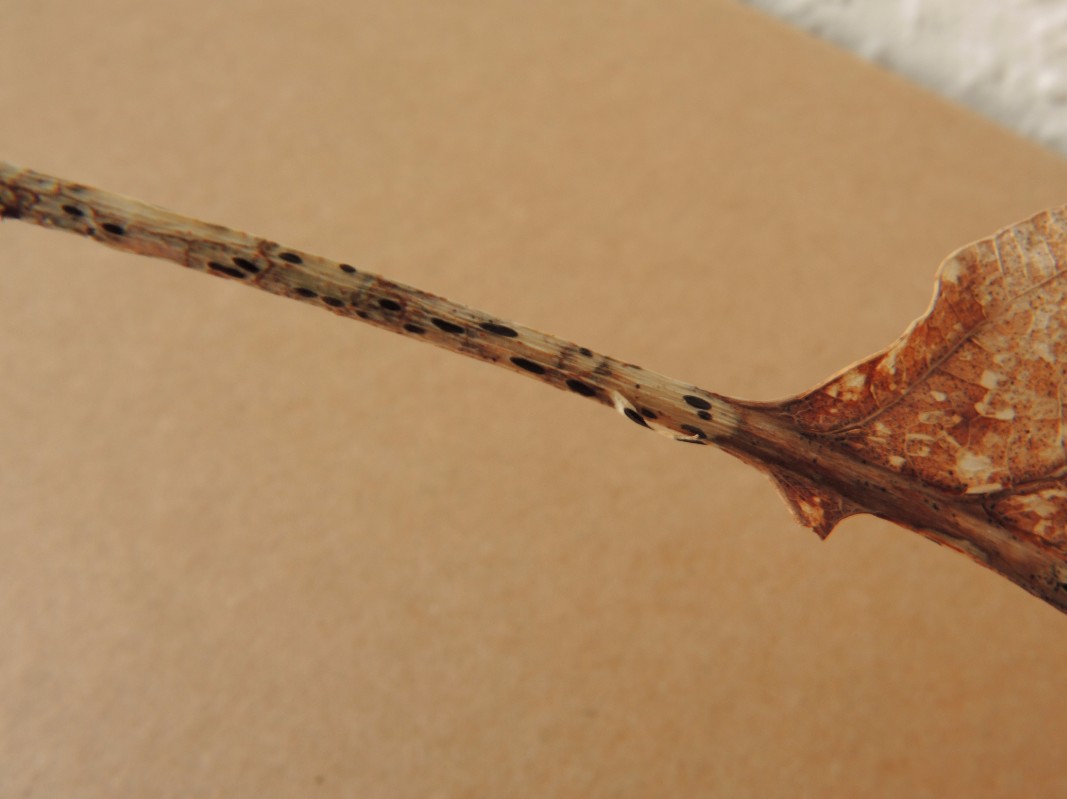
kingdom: Fungi
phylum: Ascomycota
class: Leotiomycetes
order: Rhytismatales
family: Rhytismataceae
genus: Lophodermium
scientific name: Lophodermium petiolicola
